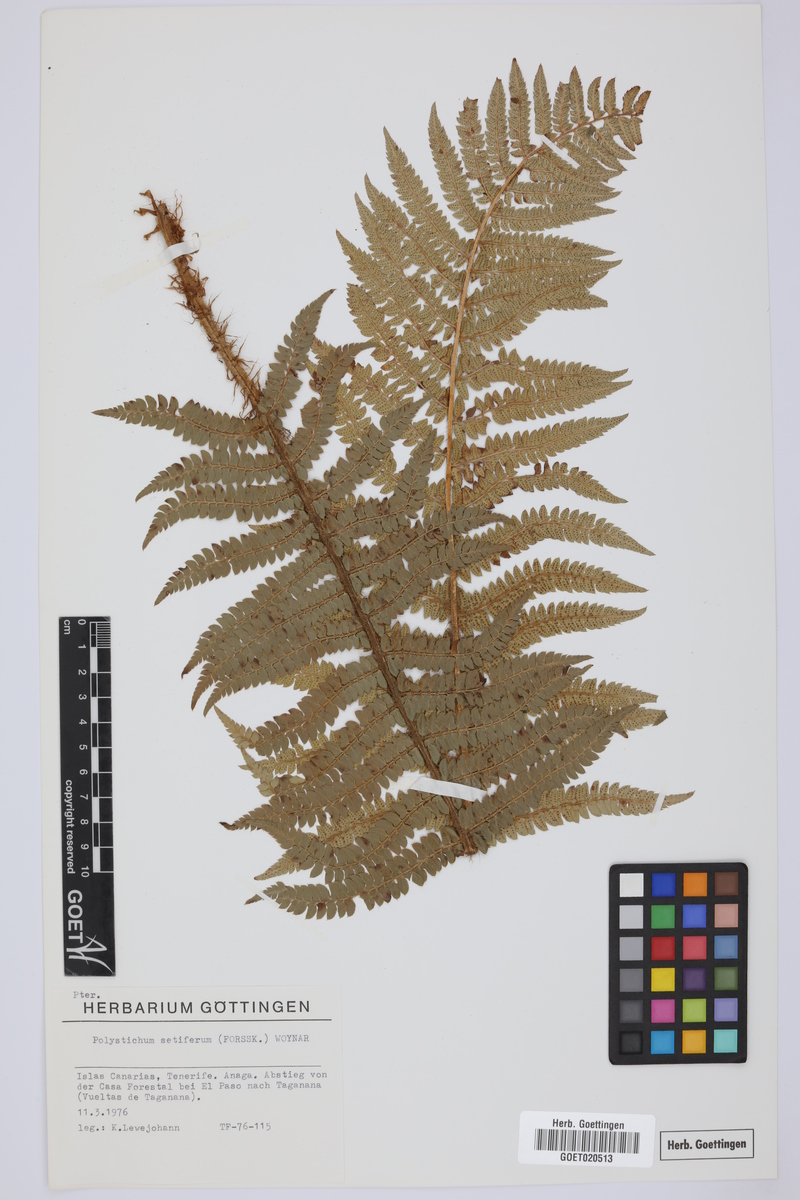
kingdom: Plantae
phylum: Tracheophyta
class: Polypodiopsida
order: Polypodiales
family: Dryopteridaceae
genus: Polystichum
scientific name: Polystichum setiferum
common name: Soft shield-fern
